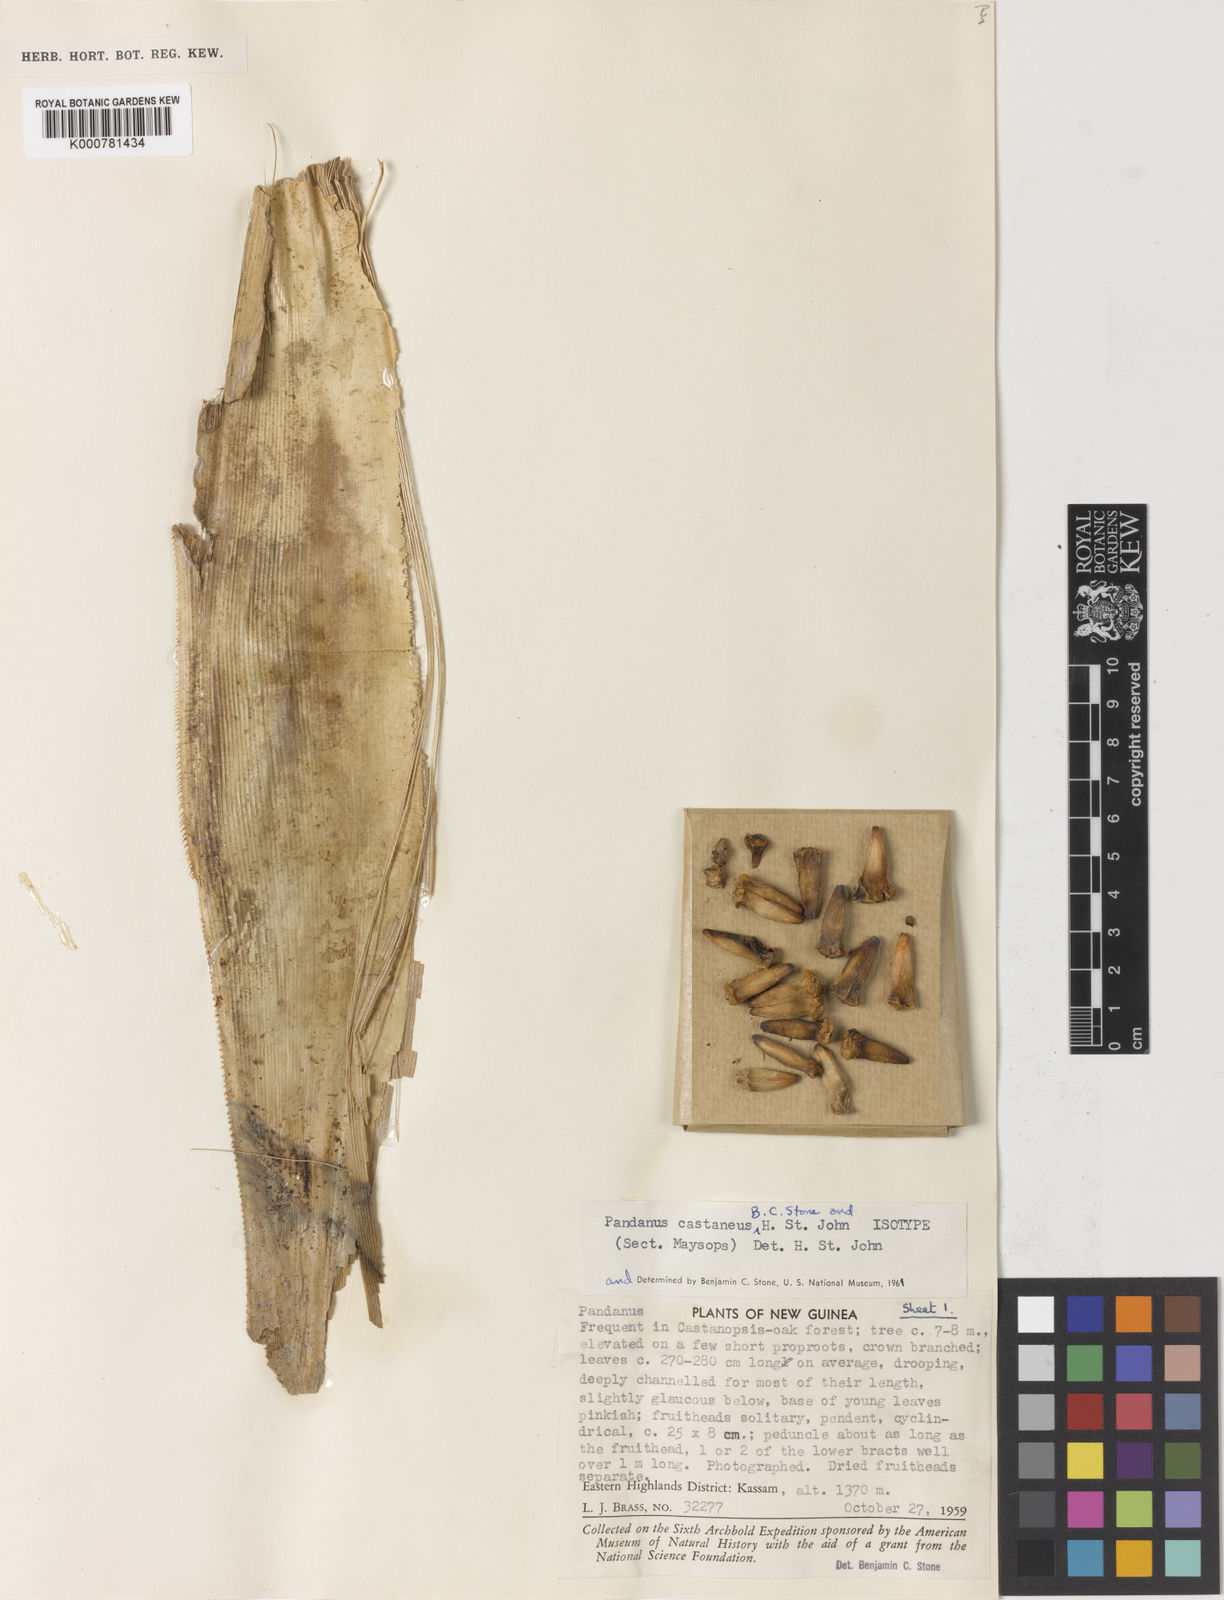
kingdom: Plantae
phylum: Tracheophyta
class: Liliopsida
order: Pandanales
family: Pandanaceae
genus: Pandanus
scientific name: Pandanus castaneus
